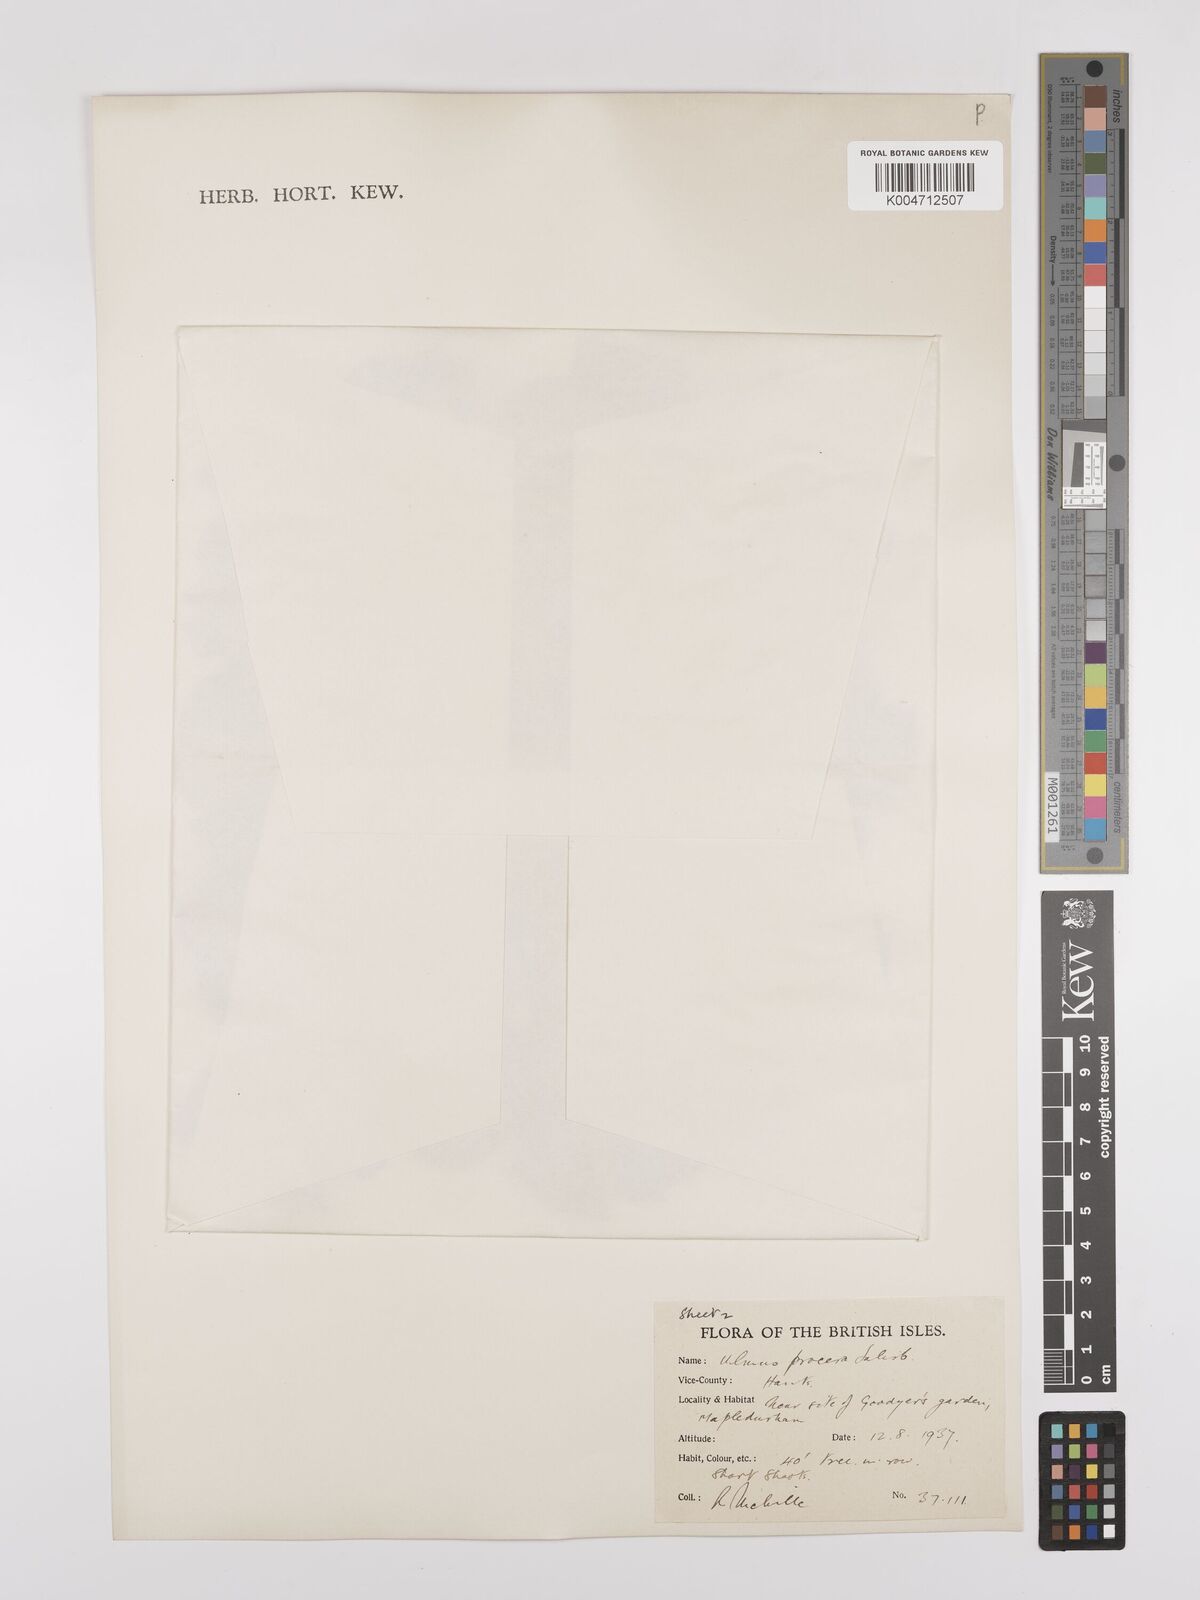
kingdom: Plantae
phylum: Tracheophyta
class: Magnoliopsida
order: Rosales
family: Ulmaceae
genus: Ulmus
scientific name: Ulmus minor
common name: Small-leaved elm
